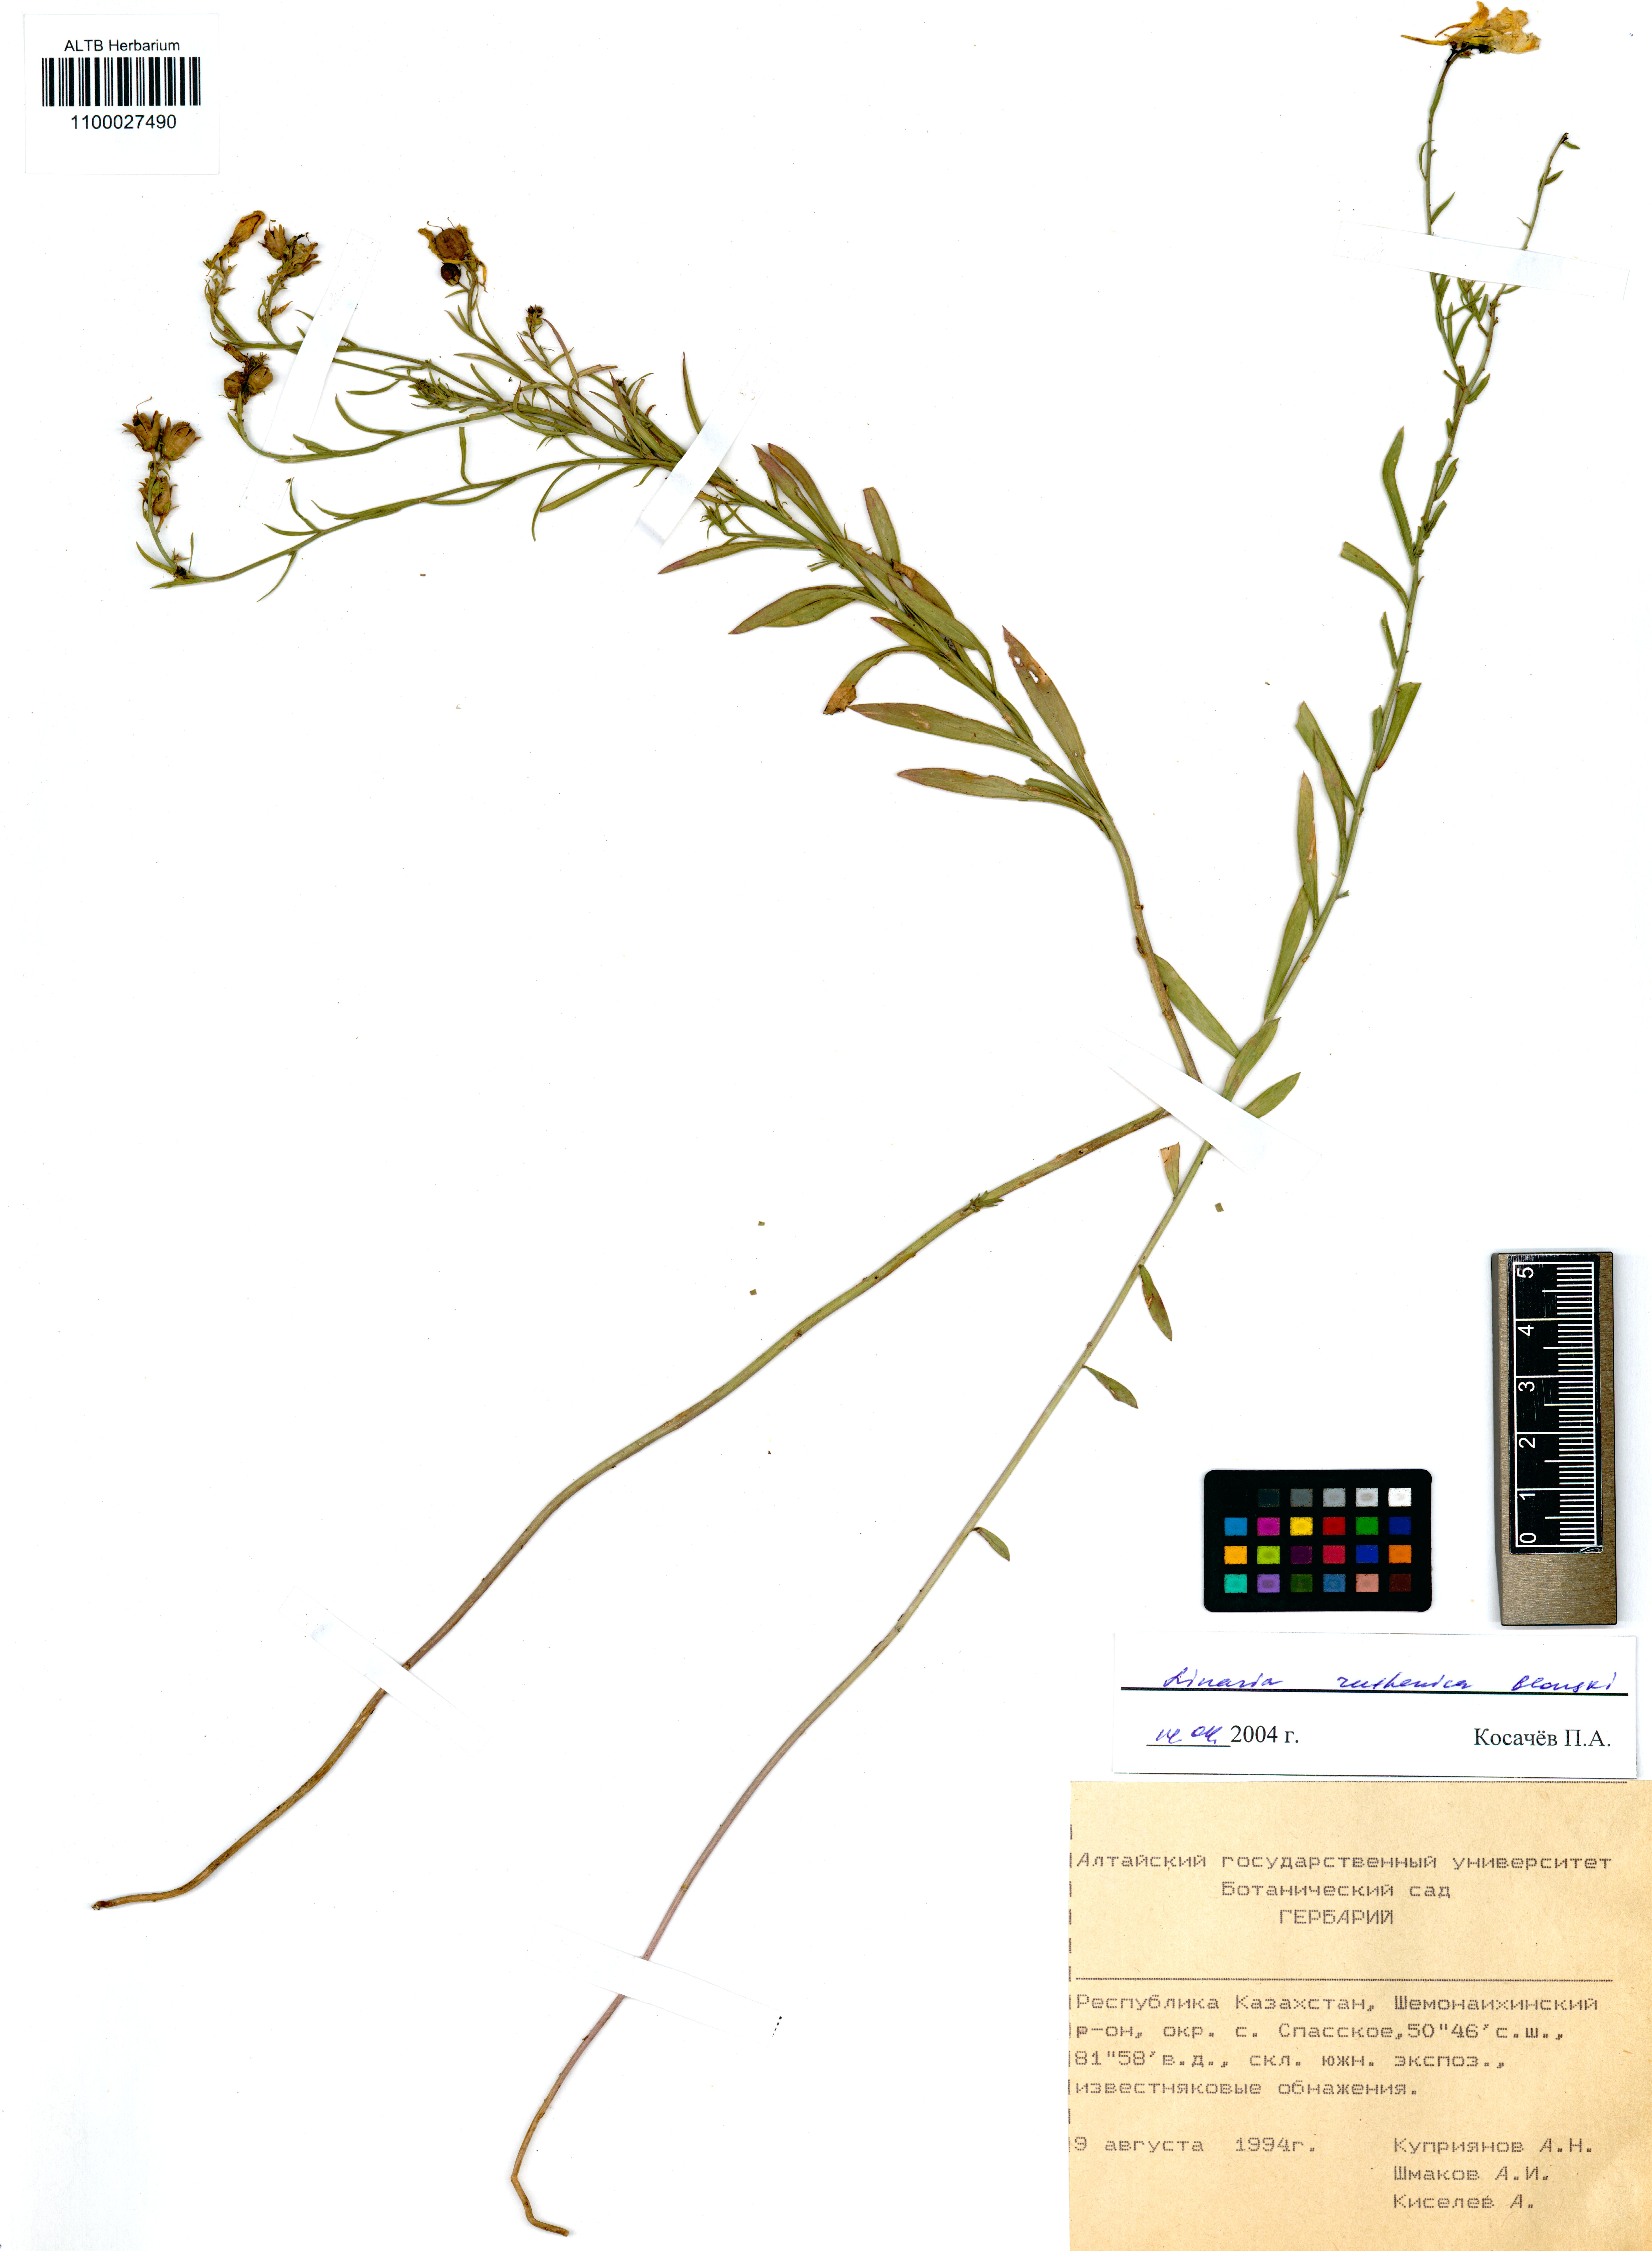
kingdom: Plantae
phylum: Tracheophyta
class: Magnoliopsida
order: Lamiales
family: Plantaginaceae
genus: Linaria
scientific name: Linaria biebersteinii
